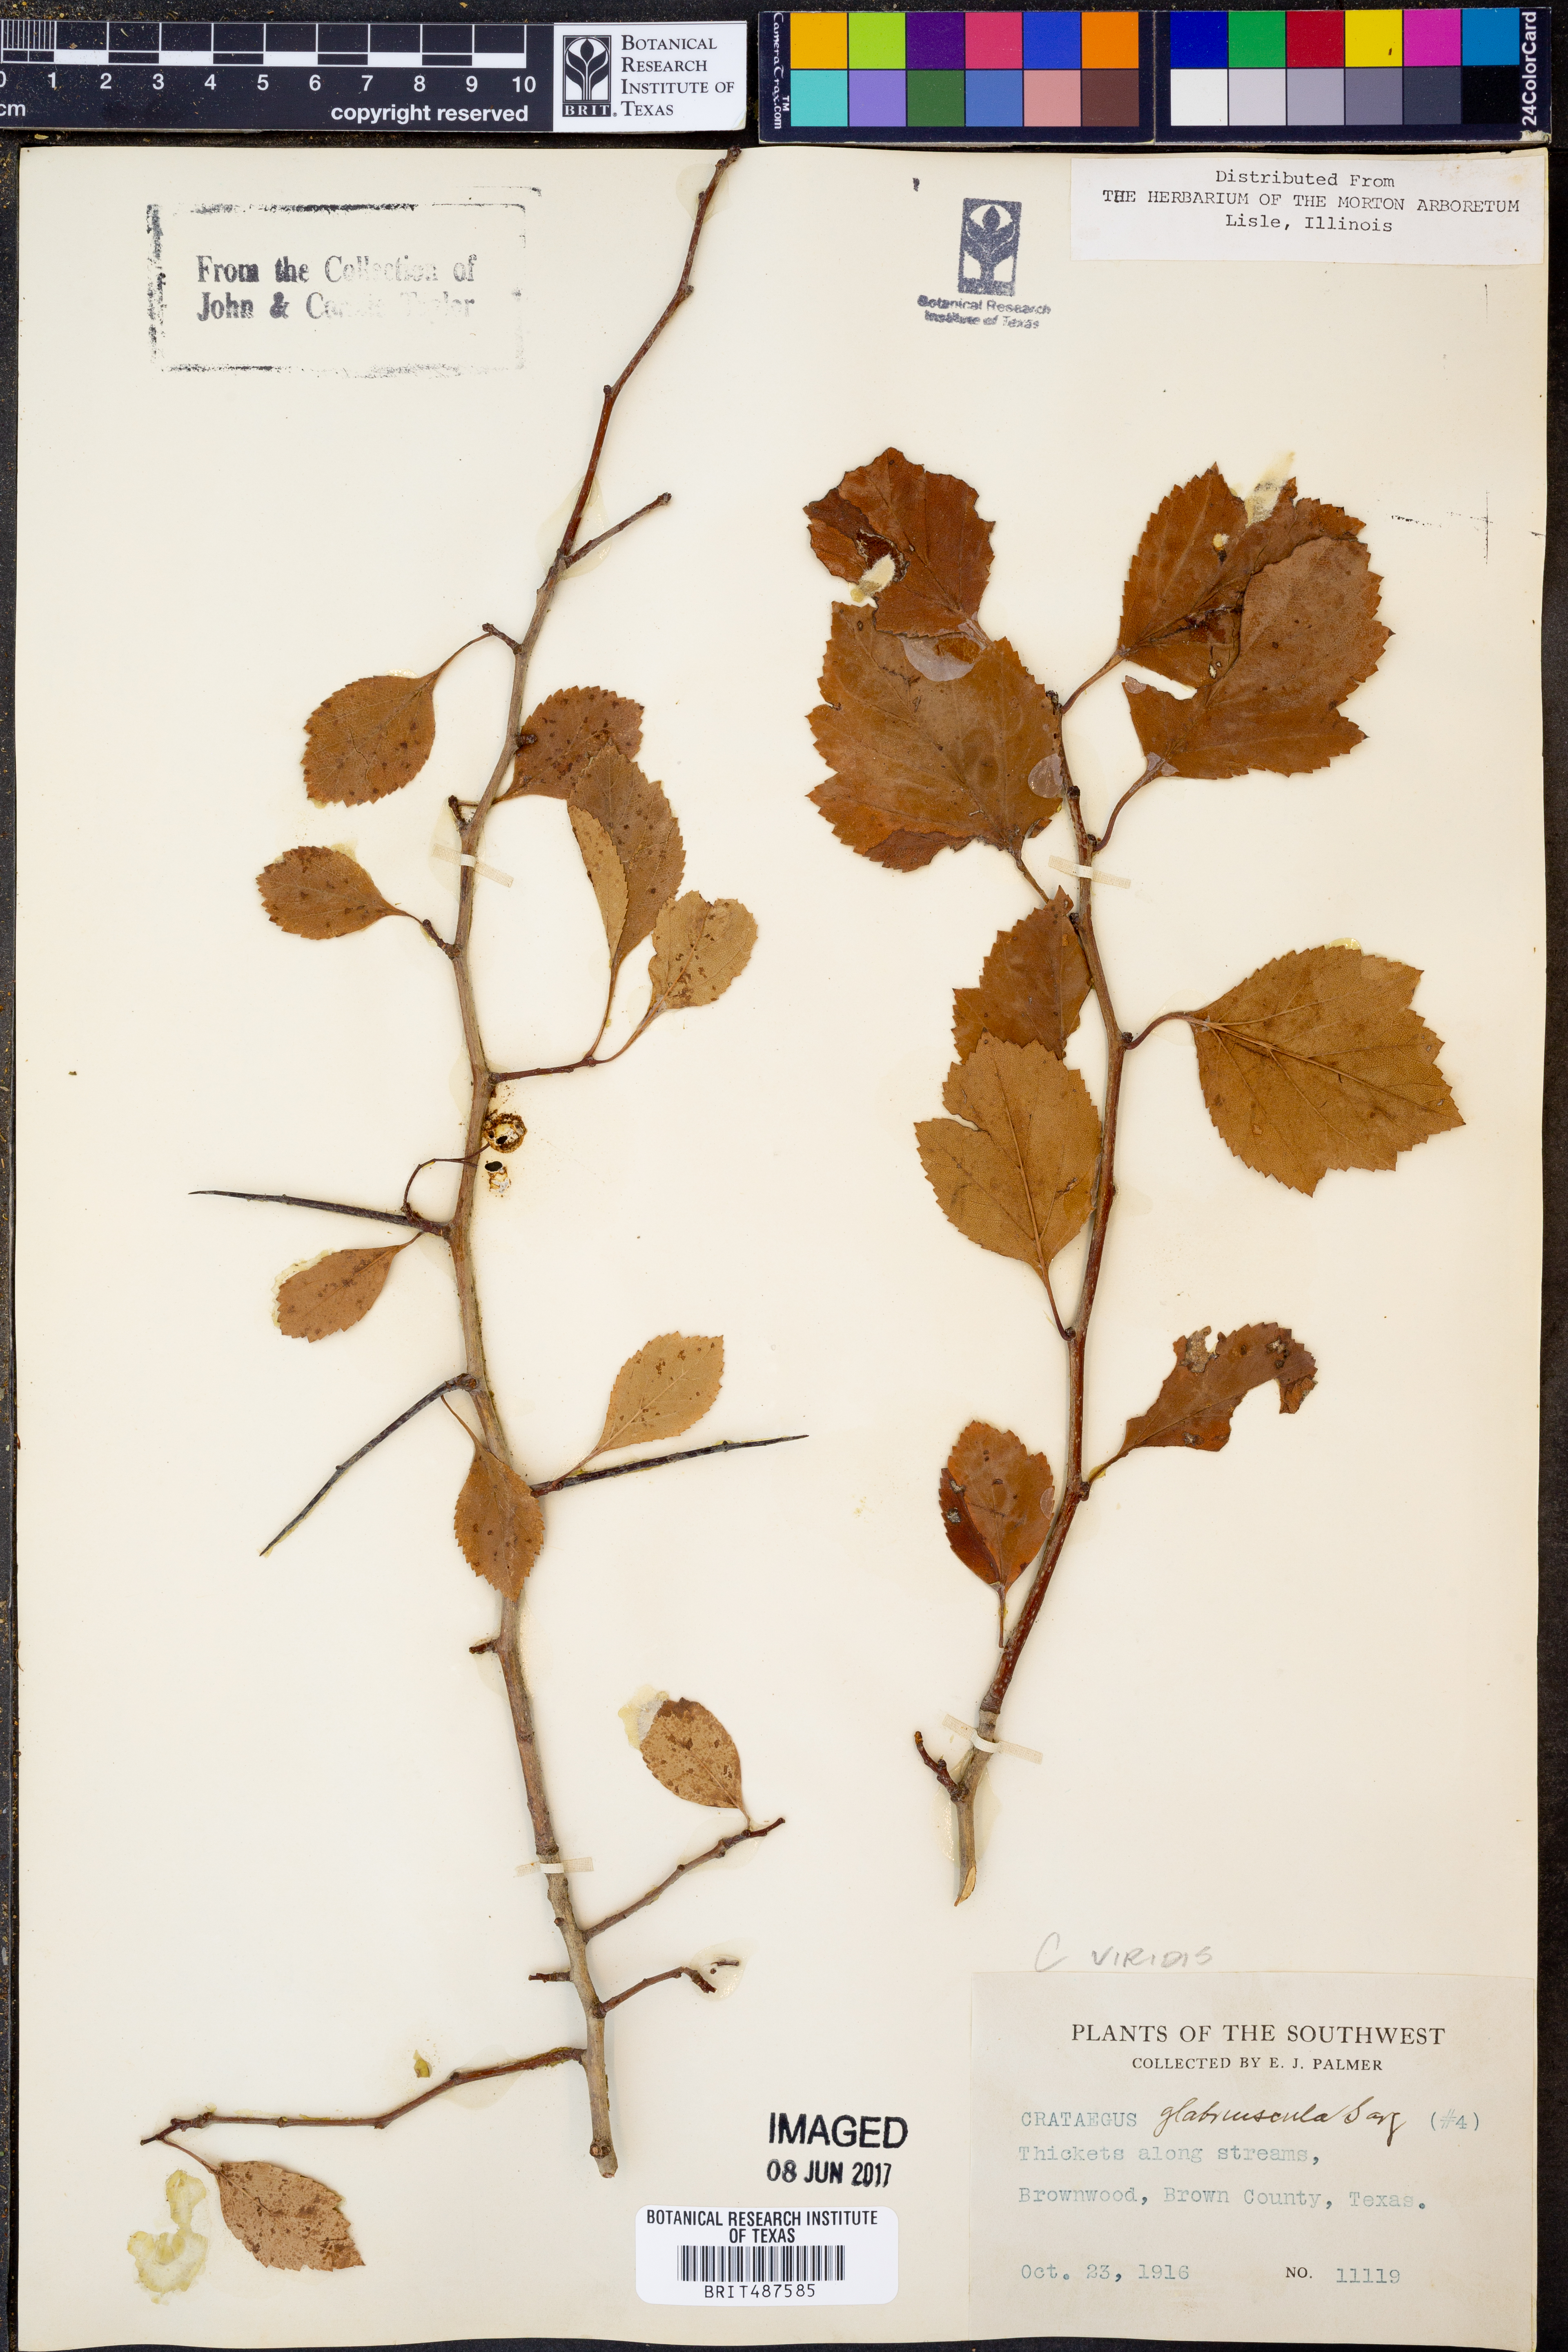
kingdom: Plantae
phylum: Tracheophyta
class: Magnoliopsida
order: Rosales
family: Rosaceae
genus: Crataegus
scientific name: Crataegus viridis
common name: Southernthorn
